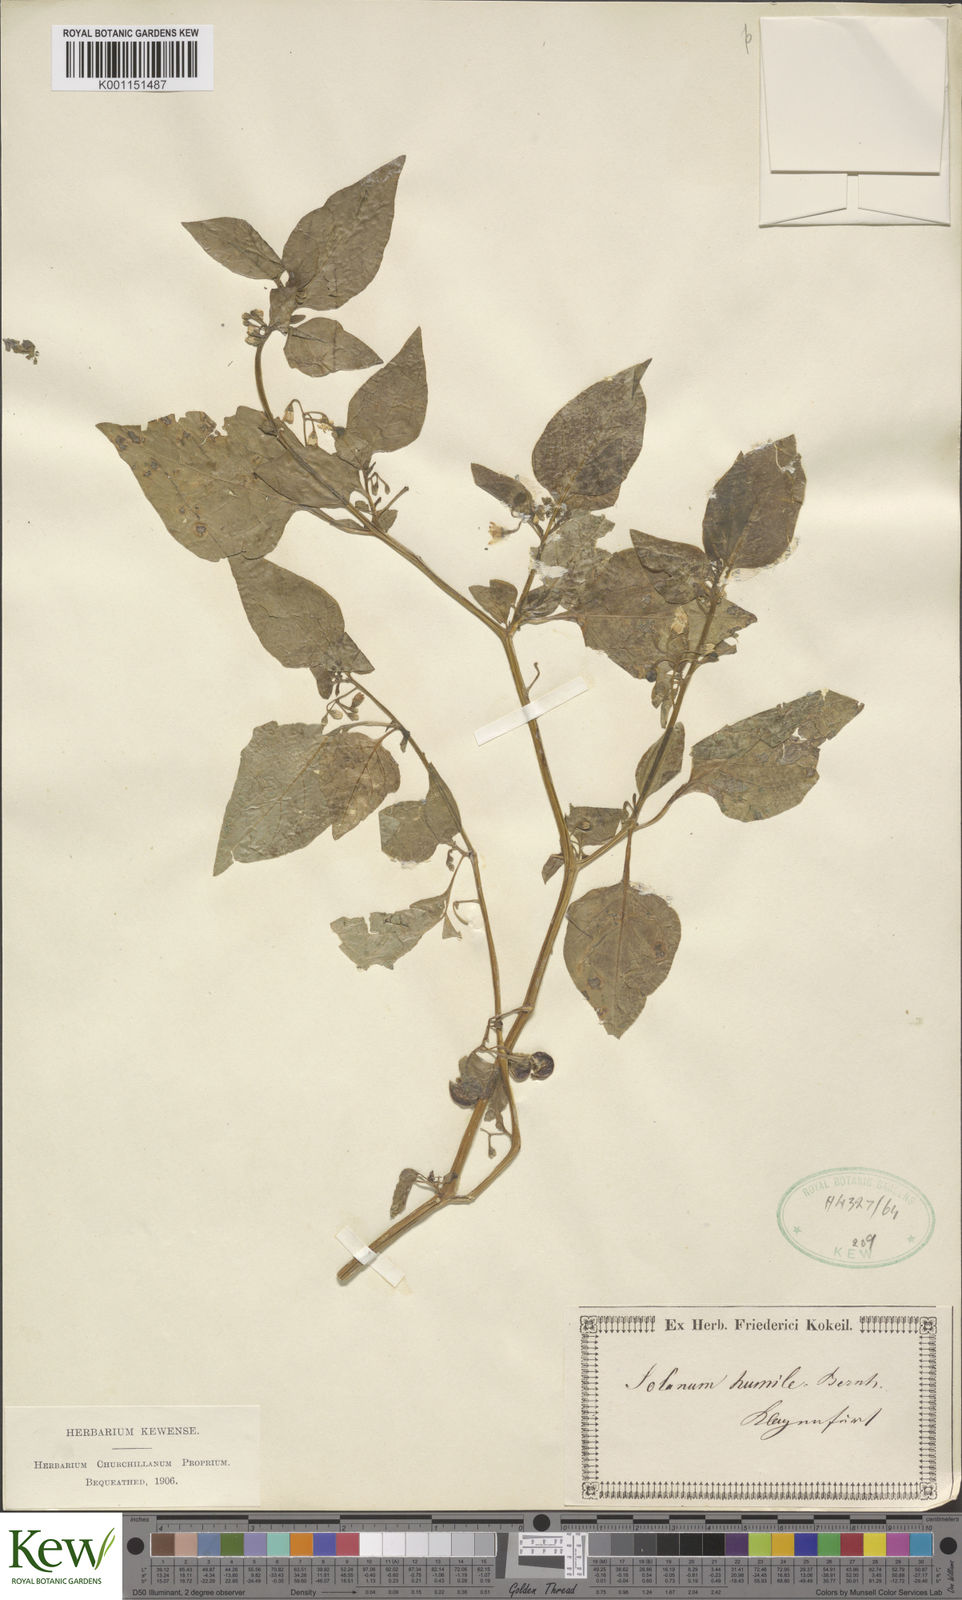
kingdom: Plantae
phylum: Tracheophyta
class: Magnoliopsida
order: Solanales
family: Solanaceae
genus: Solanum
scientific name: Solanum villosum
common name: Red nightshade
